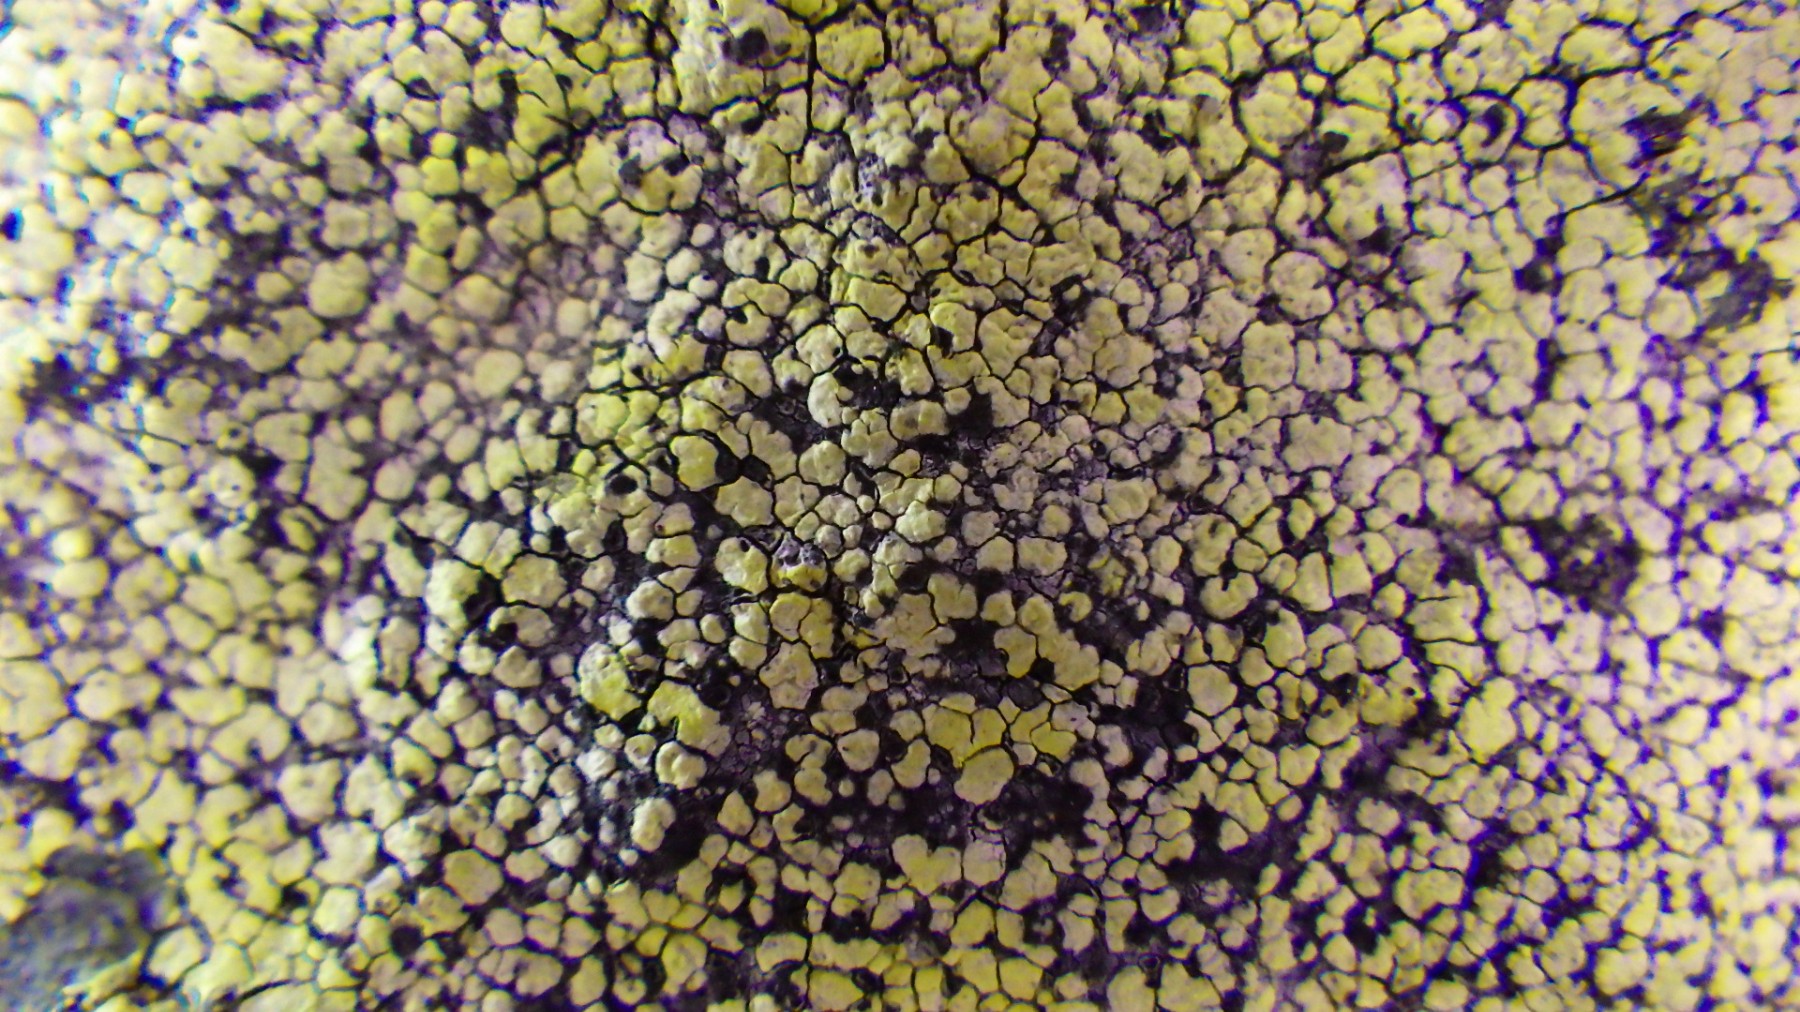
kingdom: Fungi
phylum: Ascomycota
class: Lecanoromycetes
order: Rhizocarpales
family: Rhizocarpaceae
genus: Rhizocarpon
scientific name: Rhizocarpon geographicum
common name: gulgrøn landkortlav
